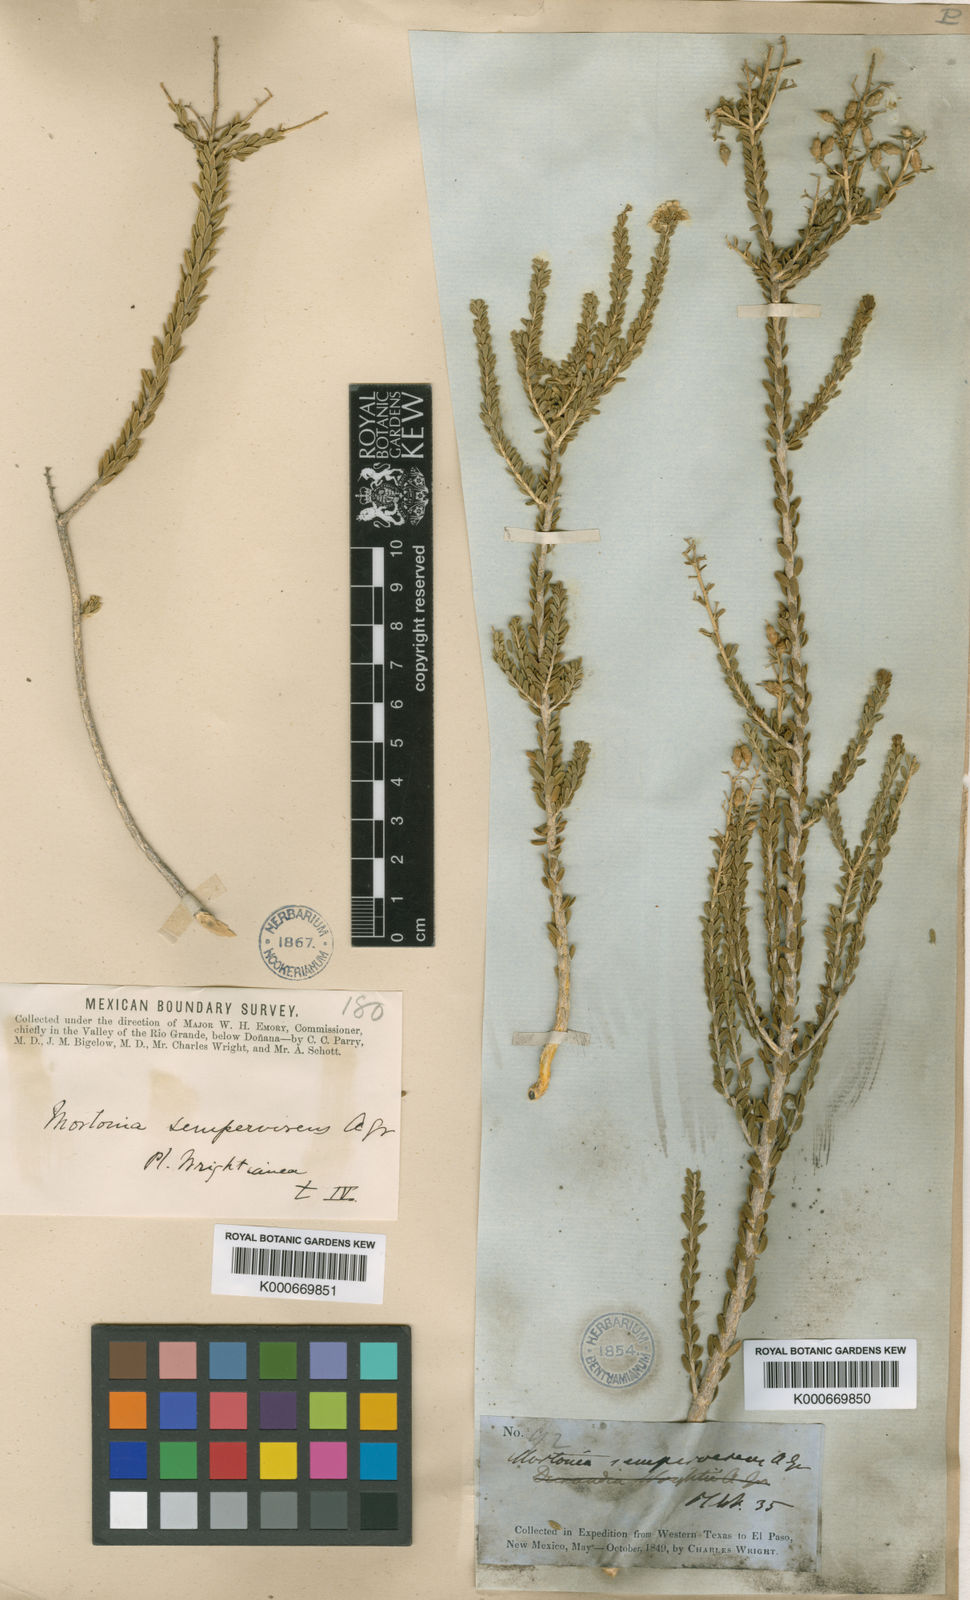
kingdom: Plantae
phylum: Tracheophyta
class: Magnoliopsida
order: Celastrales
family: Celastraceae
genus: Mortonia
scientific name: Mortonia sempervirens
